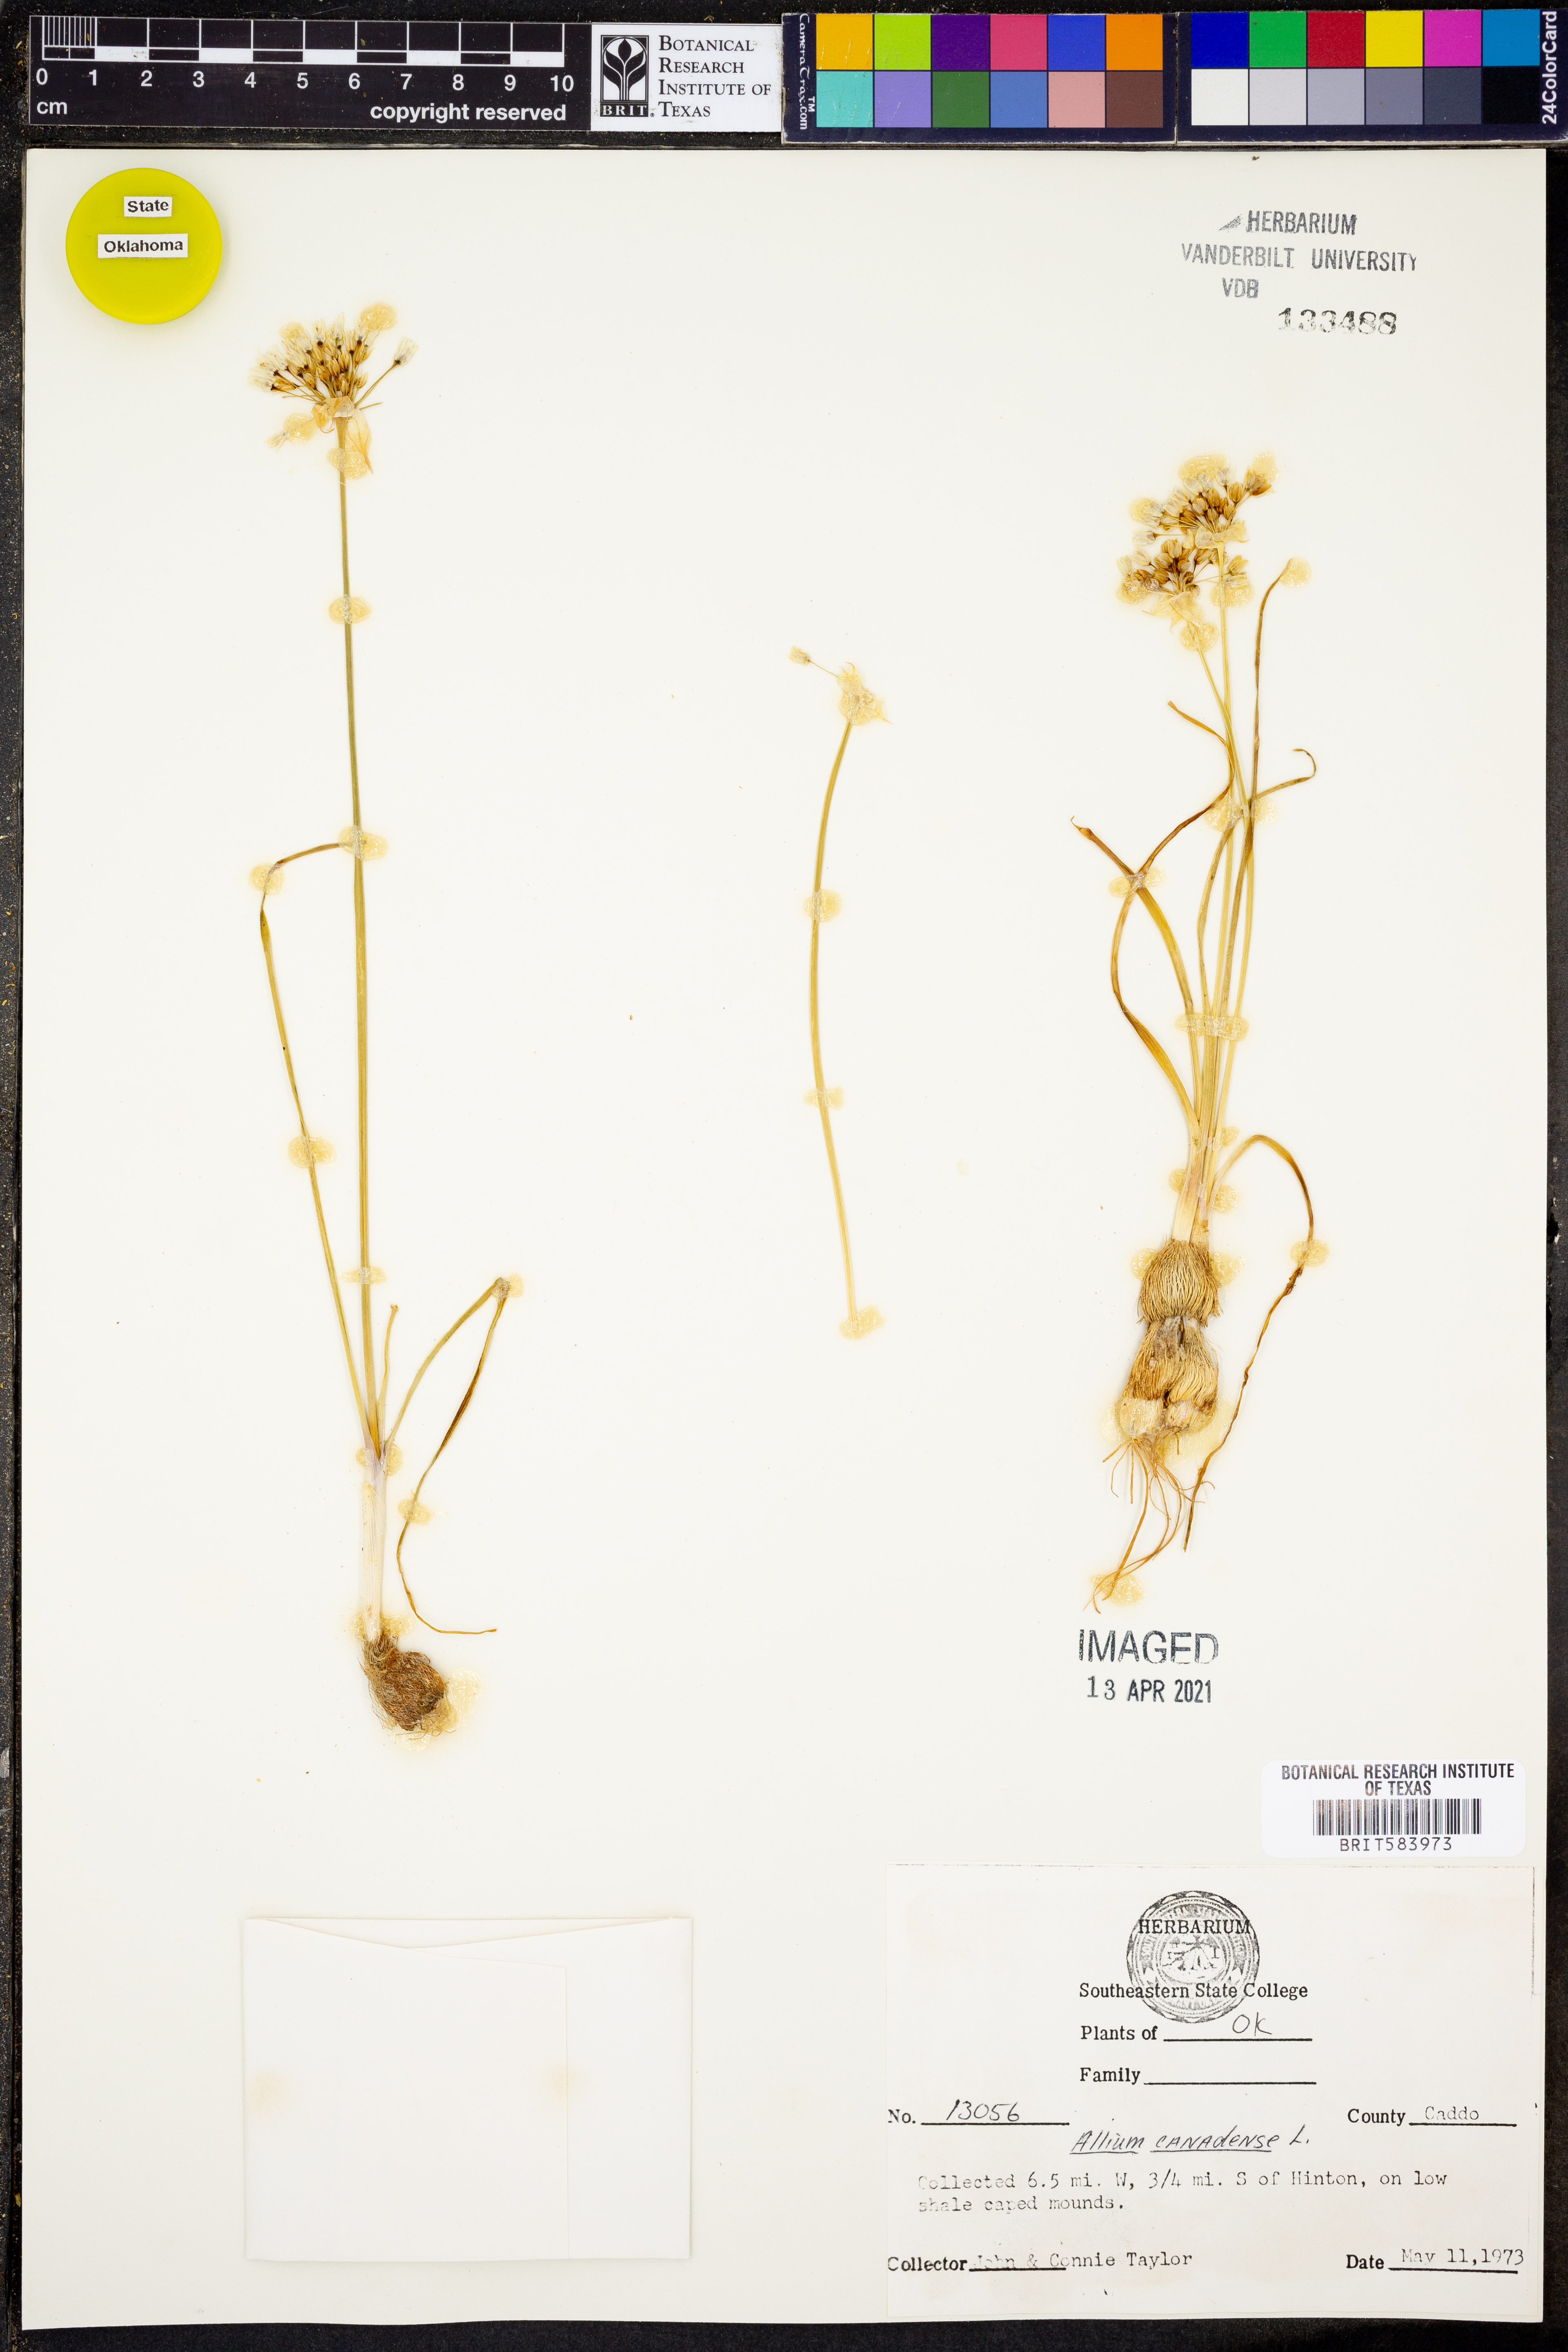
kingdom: Plantae
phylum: Tracheophyta
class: Liliopsida
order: Asparagales
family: Amaryllidaceae
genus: Allium
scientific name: Allium canadense
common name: Meadow garlic
